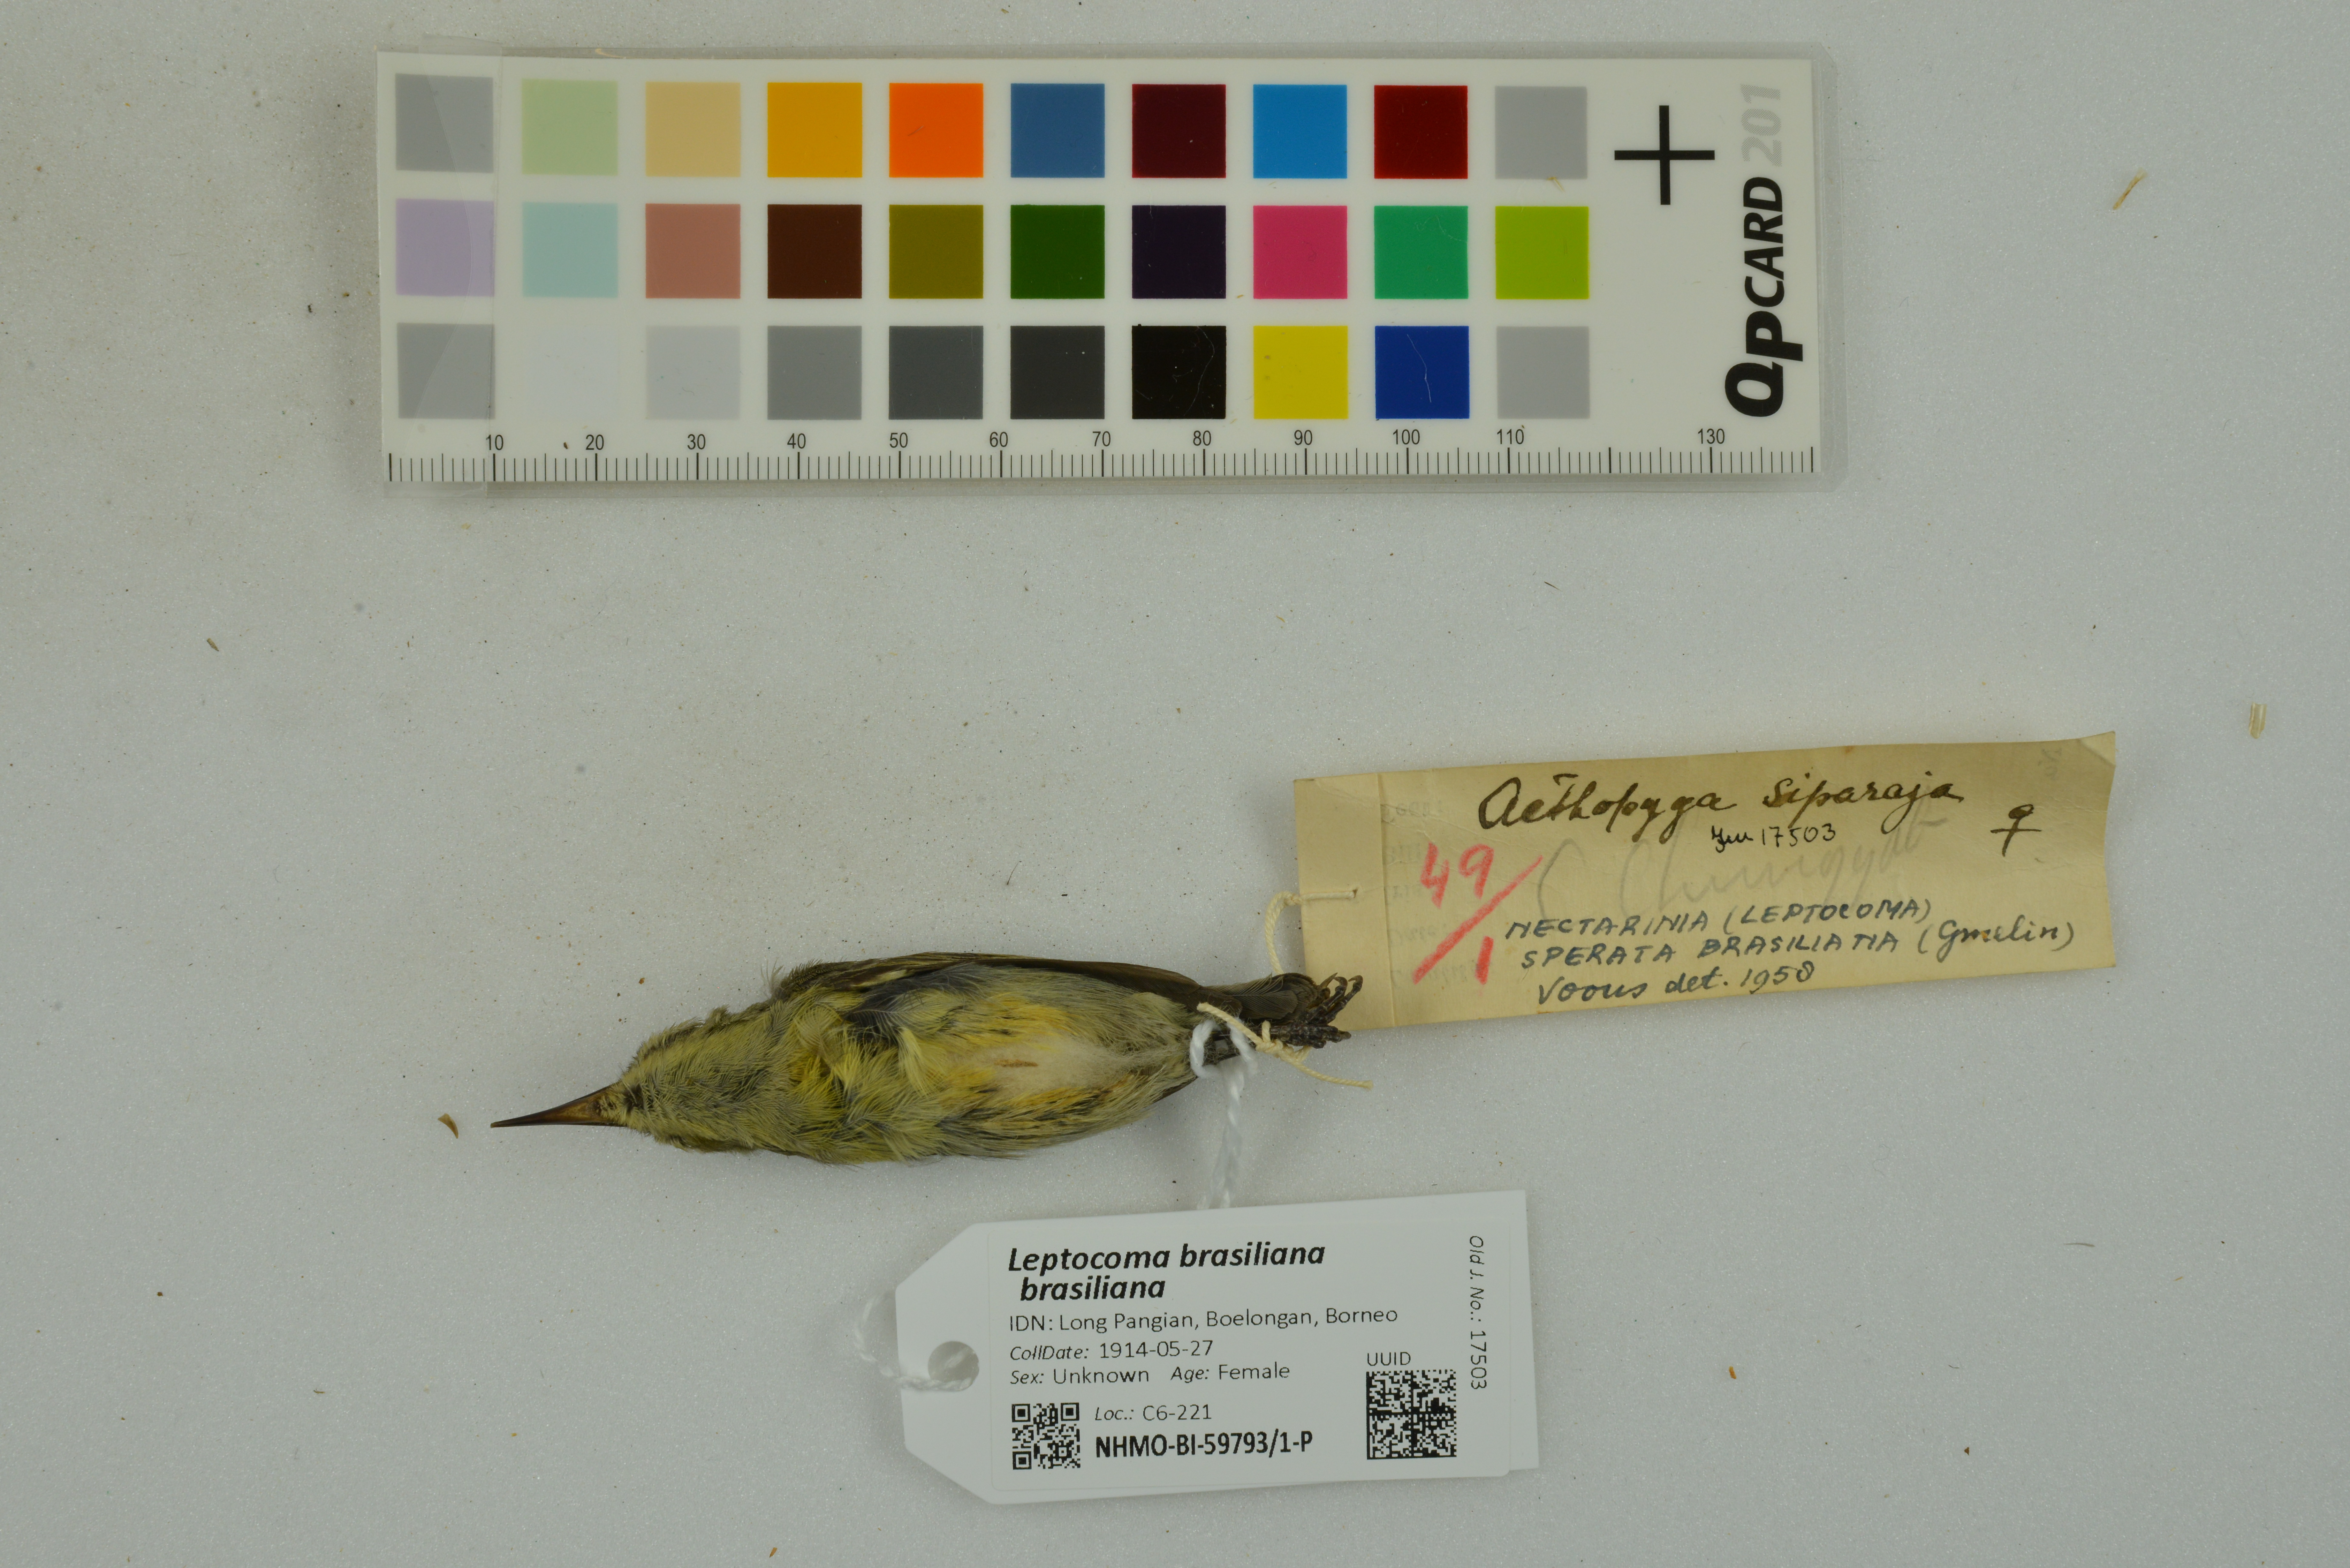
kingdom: Animalia
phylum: Chordata
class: Aves
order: Passeriformes
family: Nectariniidae
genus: Leptocoma
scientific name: Leptocoma brasiliana
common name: Van hasselt's sunbird
